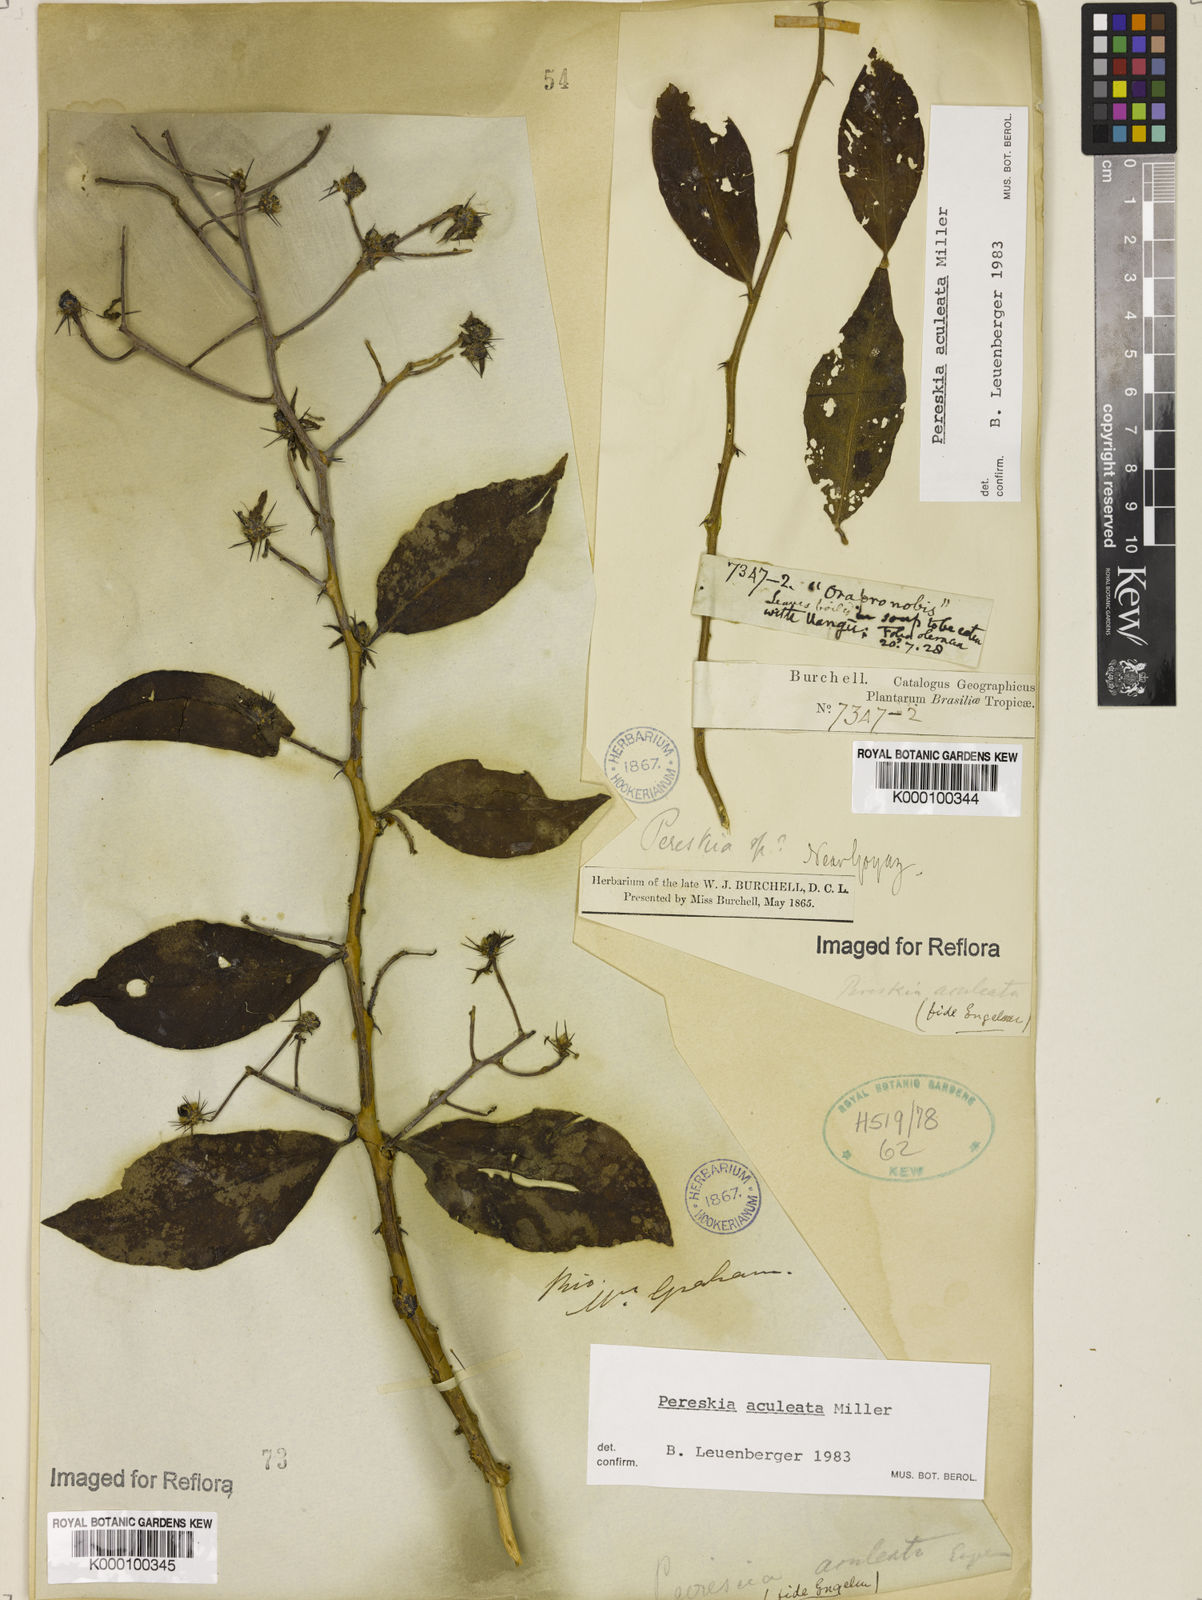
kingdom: Plantae
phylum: Tracheophyta
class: Magnoliopsida
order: Caryophyllales
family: Cactaceae
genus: Pereskia
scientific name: Pereskia aculeata
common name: Barbados gooseberry
